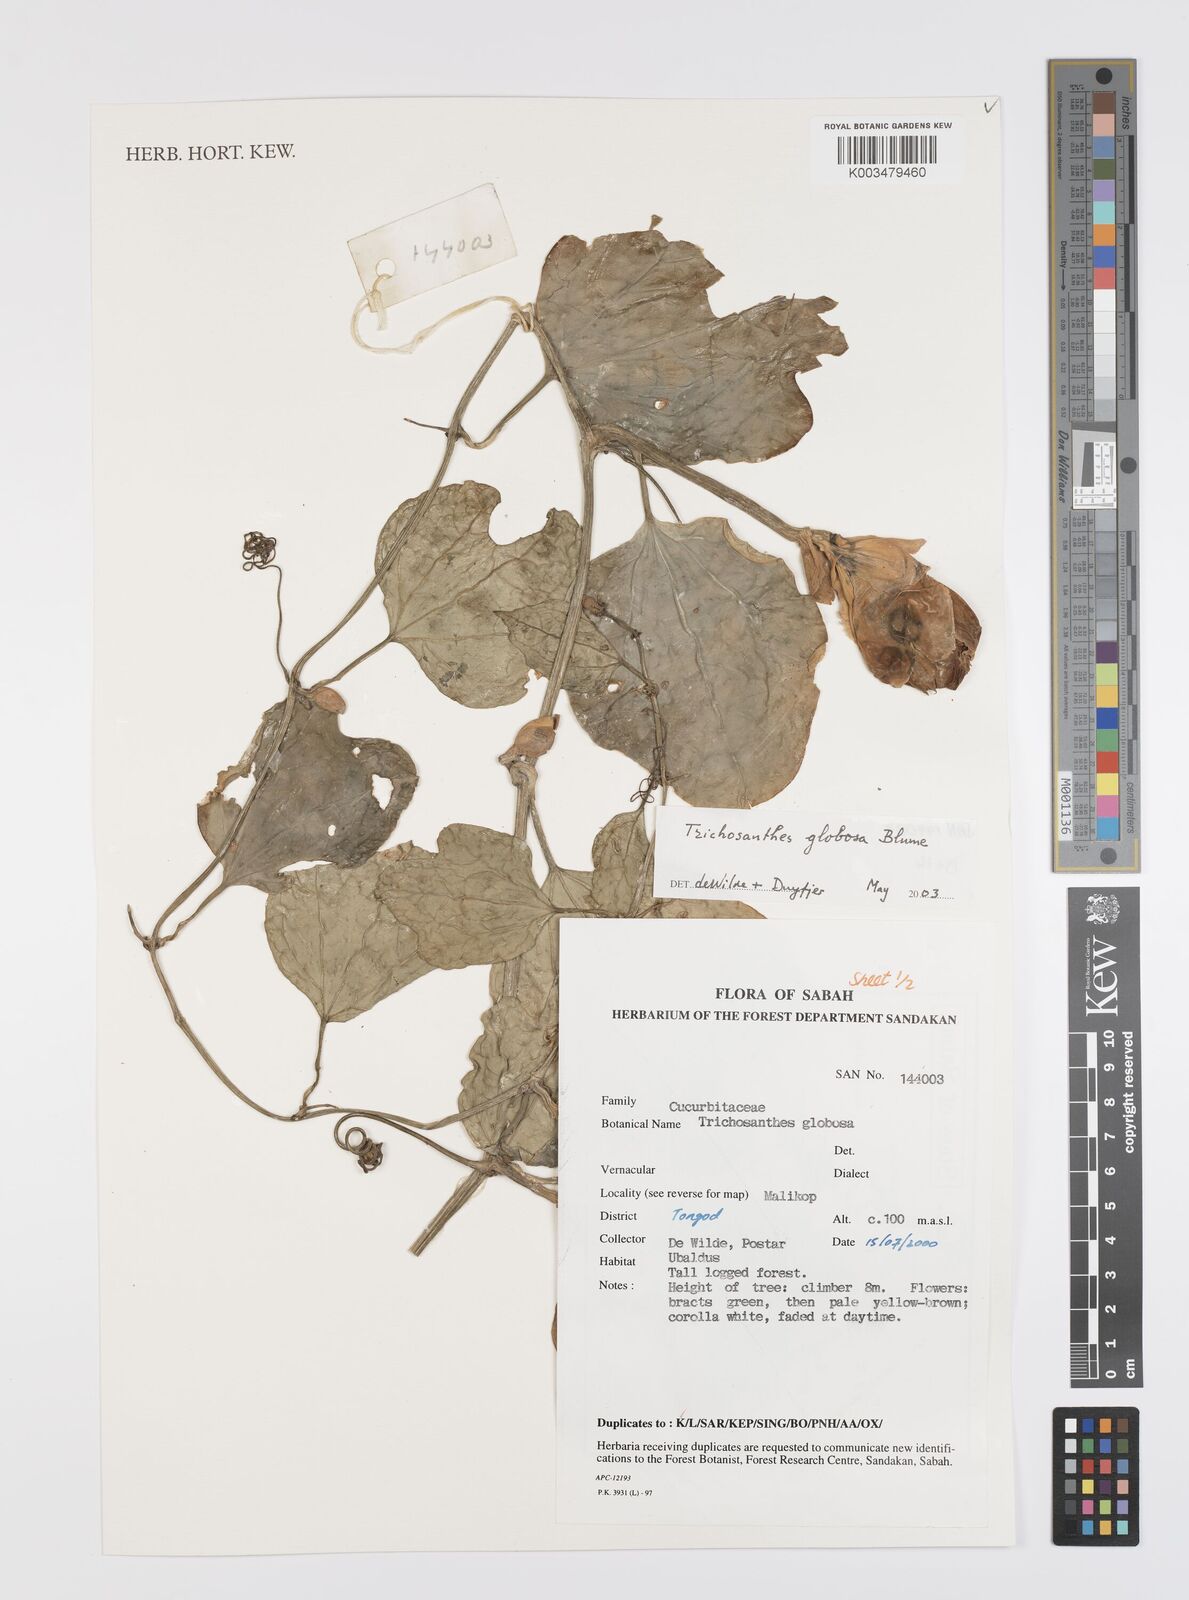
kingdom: Plantae
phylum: Tracheophyta
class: Magnoliopsida
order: Cucurbitales
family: Cucurbitaceae
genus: Trichosanthes
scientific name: Trichosanthes globosa
